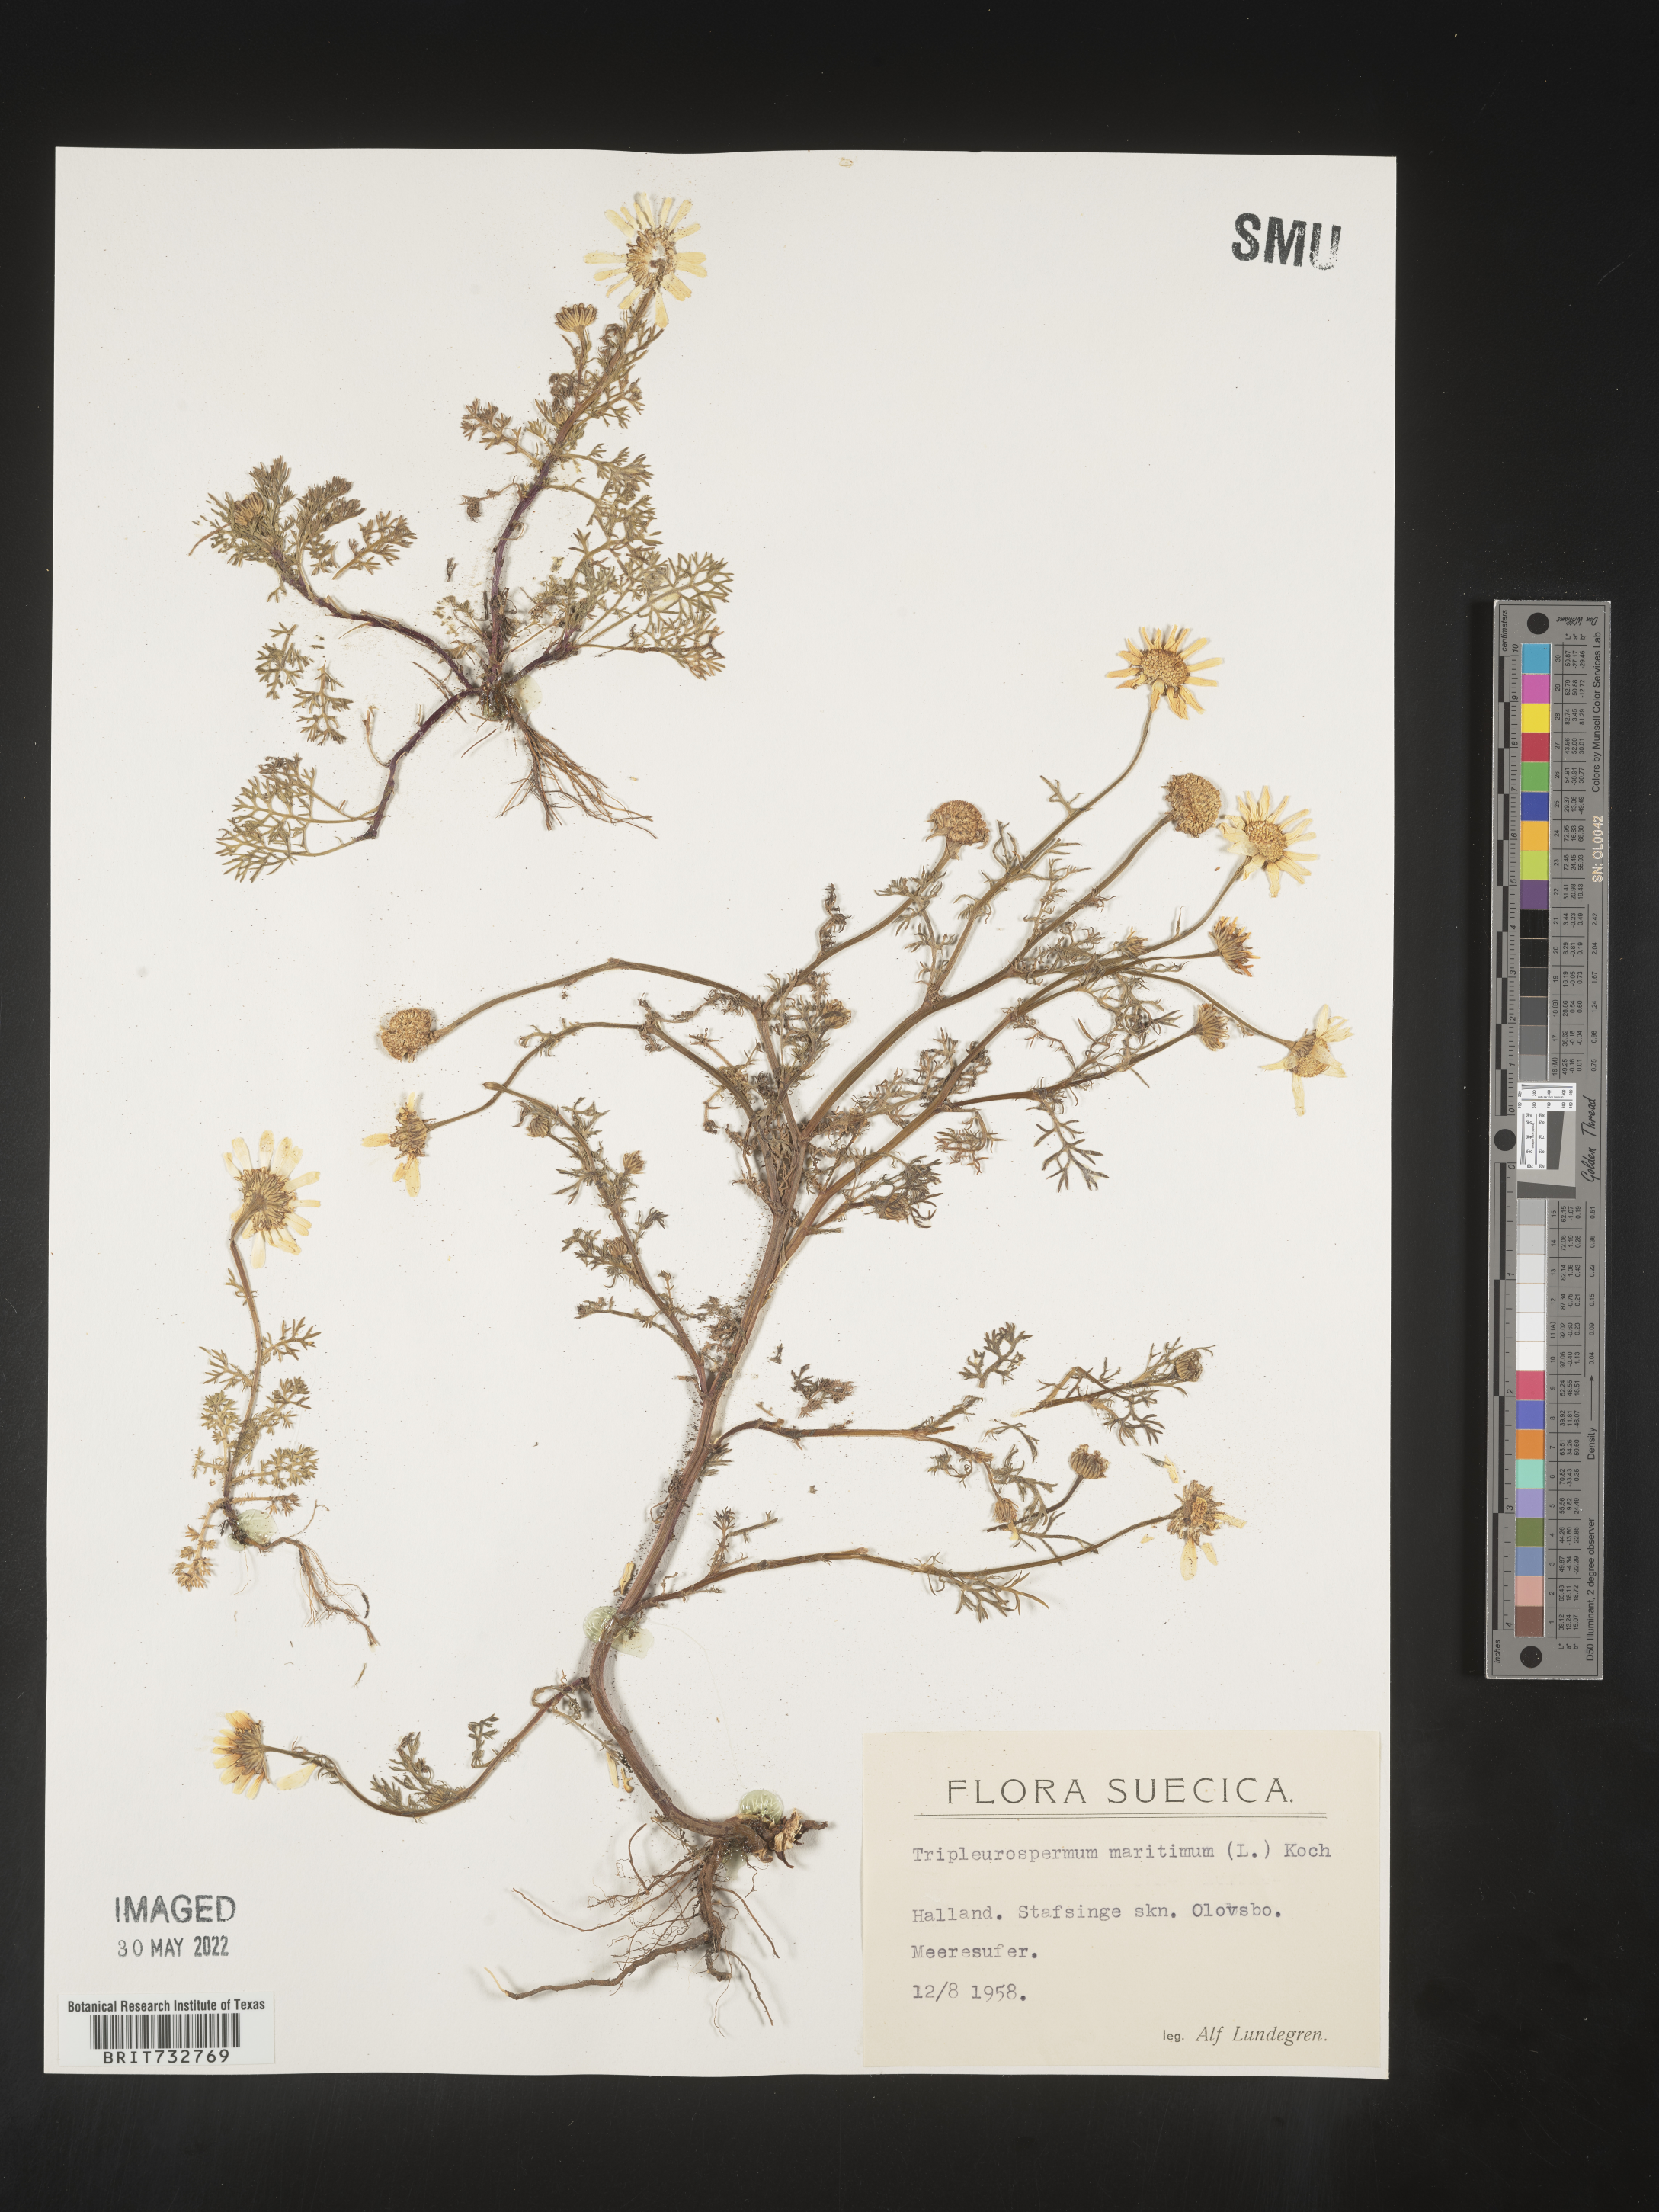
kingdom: Plantae
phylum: Tracheophyta
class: Magnoliopsida
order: Asterales
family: Asteraceae
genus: Matricaria
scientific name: Matricaria
